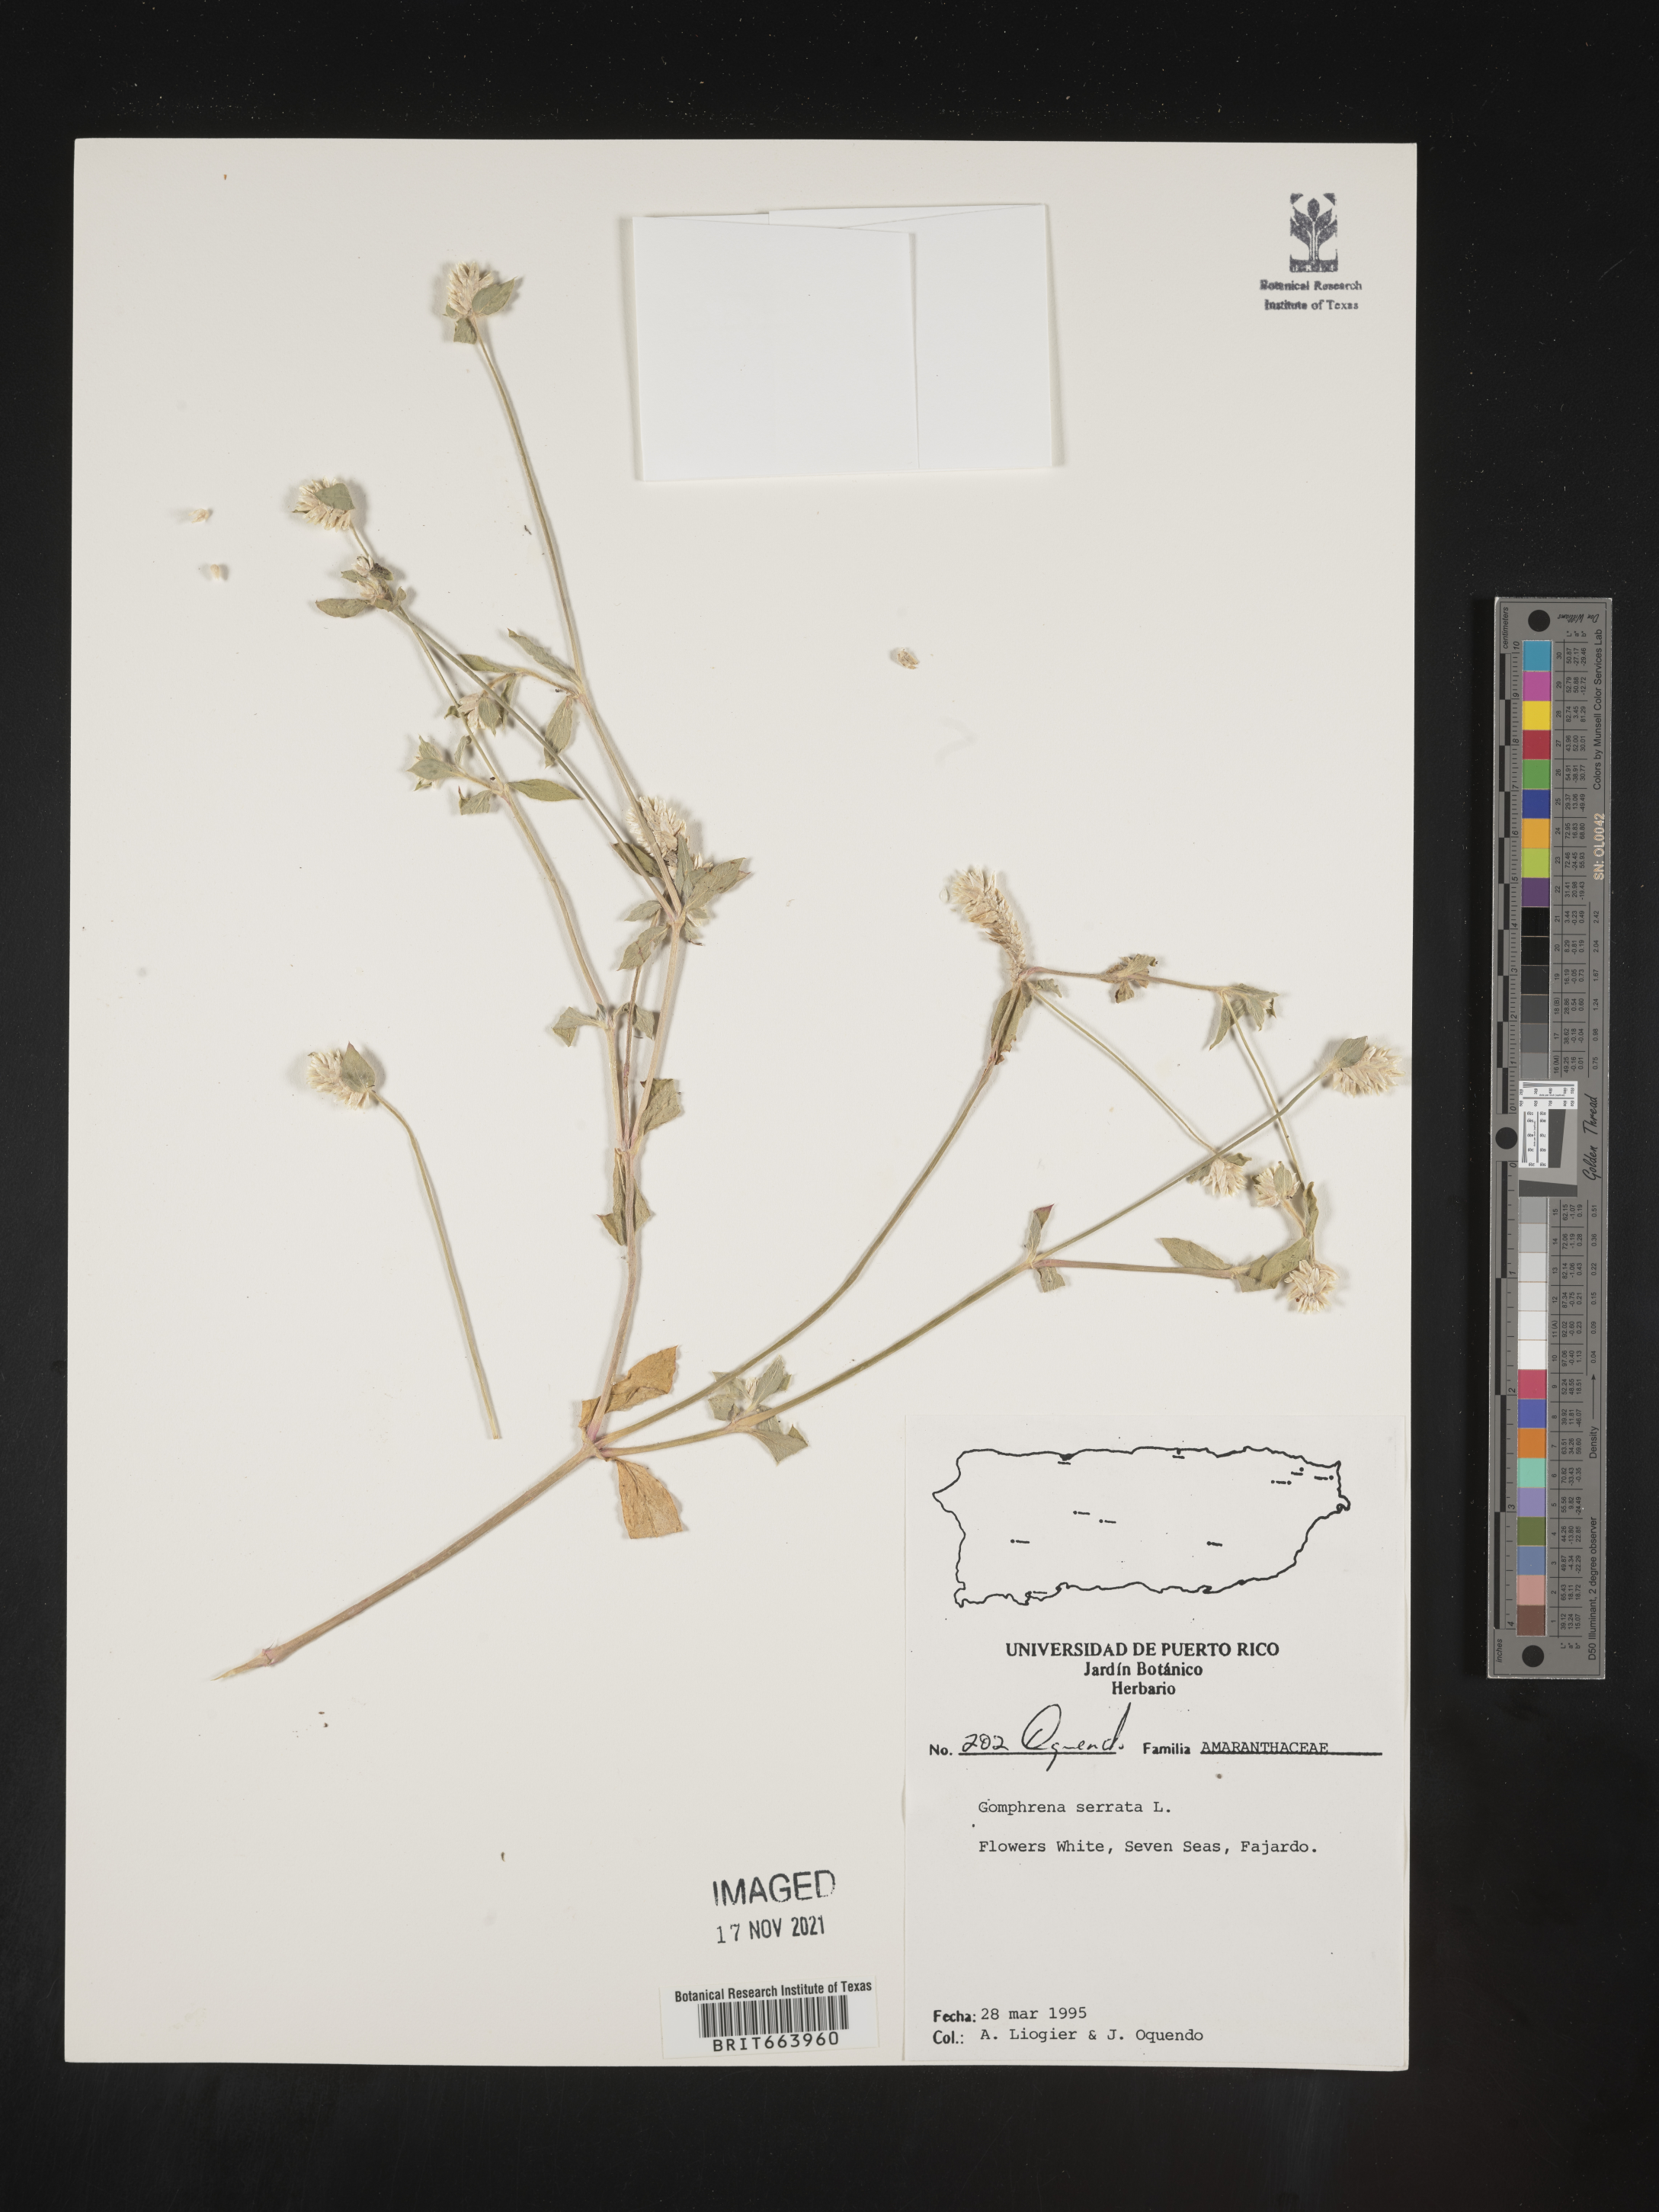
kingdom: Plantae
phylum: Tracheophyta
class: Magnoliopsida
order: Caryophyllales
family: Amaranthaceae
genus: Gomphrena
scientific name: Gomphrena
